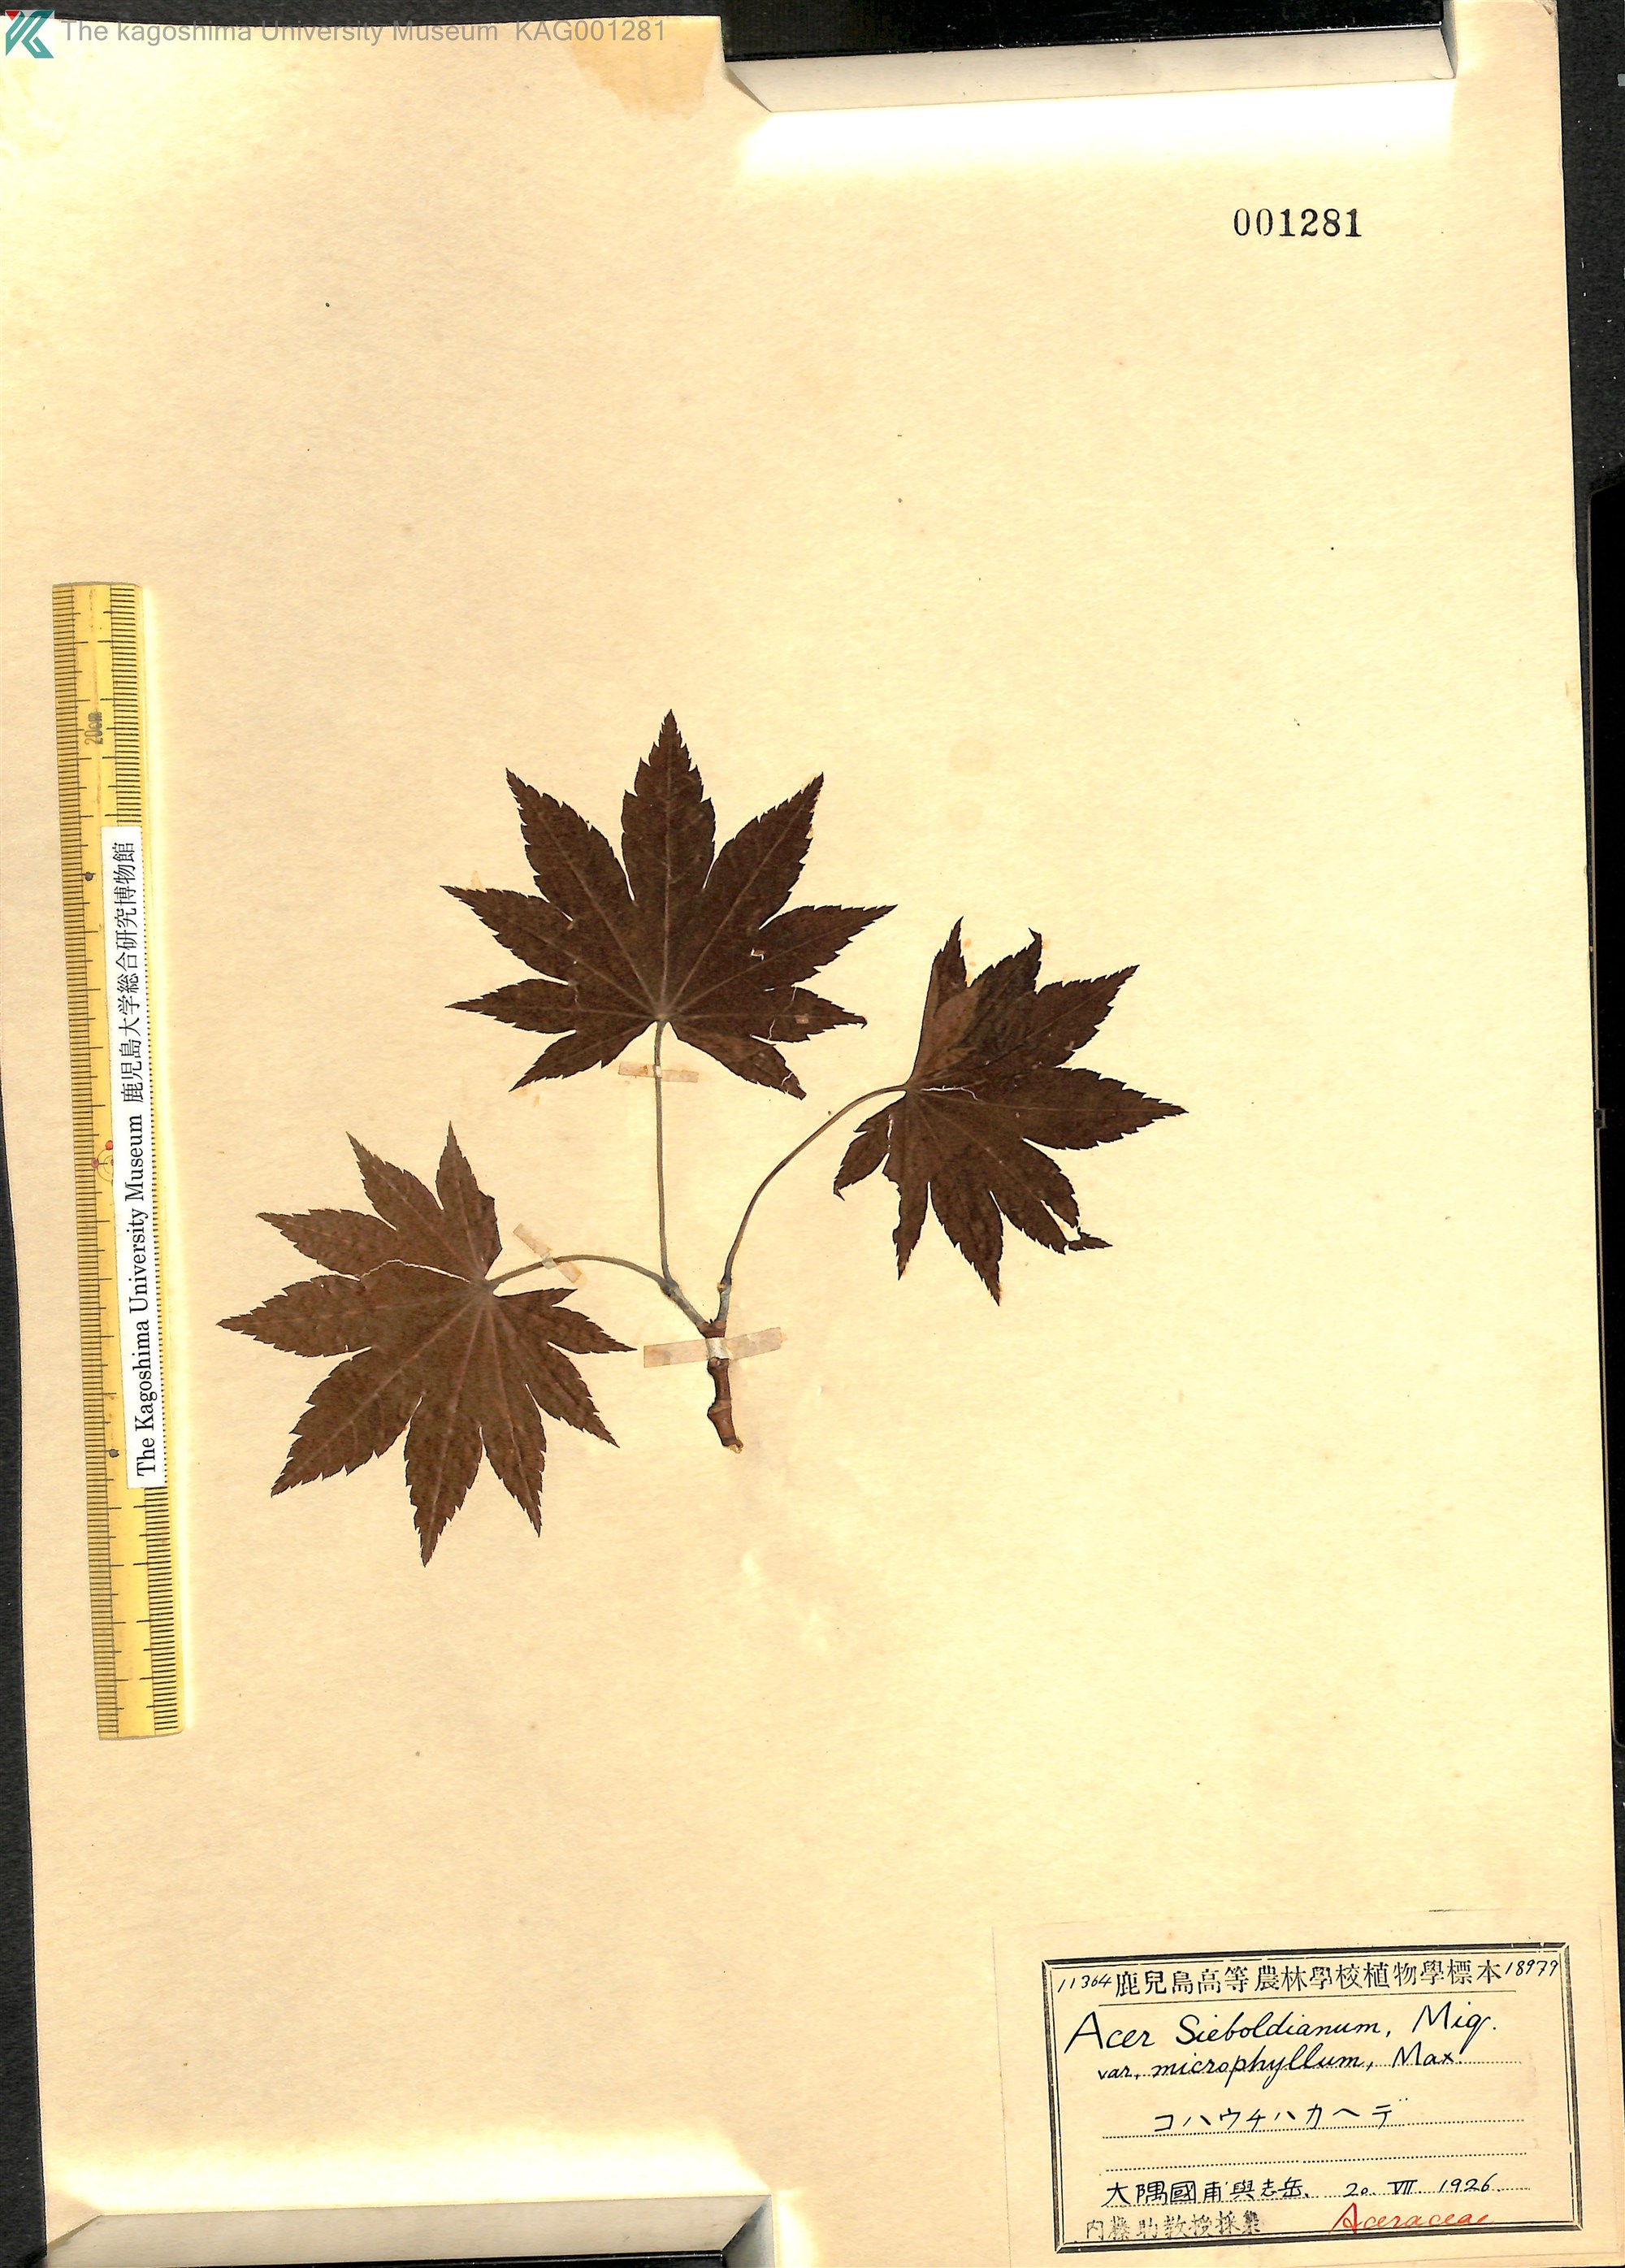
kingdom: Plantae
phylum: Tracheophyta
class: Magnoliopsida
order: Sapindales
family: Sapindaceae
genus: Acer
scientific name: Acer sieboldianum
